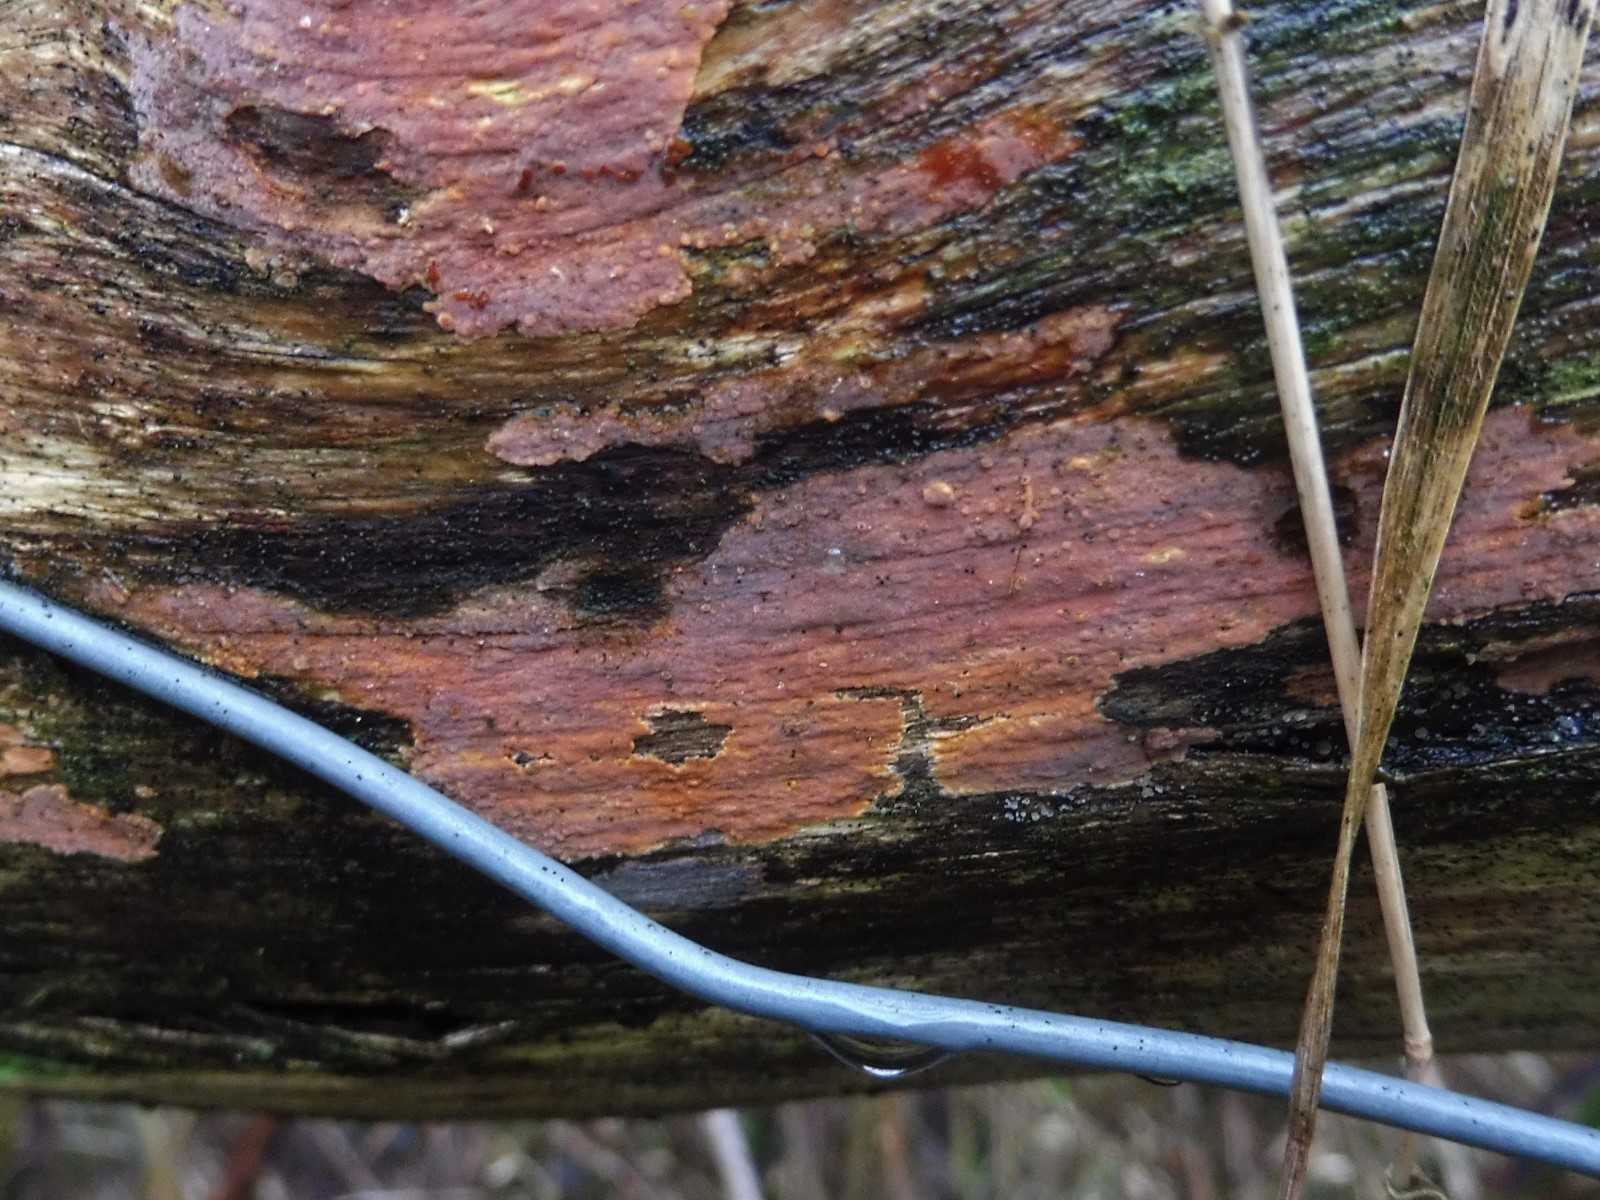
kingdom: Fungi
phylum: Basidiomycota
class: Agaricomycetes
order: Russulales
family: Peniophoraceae
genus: Peniophora
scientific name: Peniophora incarnata
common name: laksefarvet voksskind
